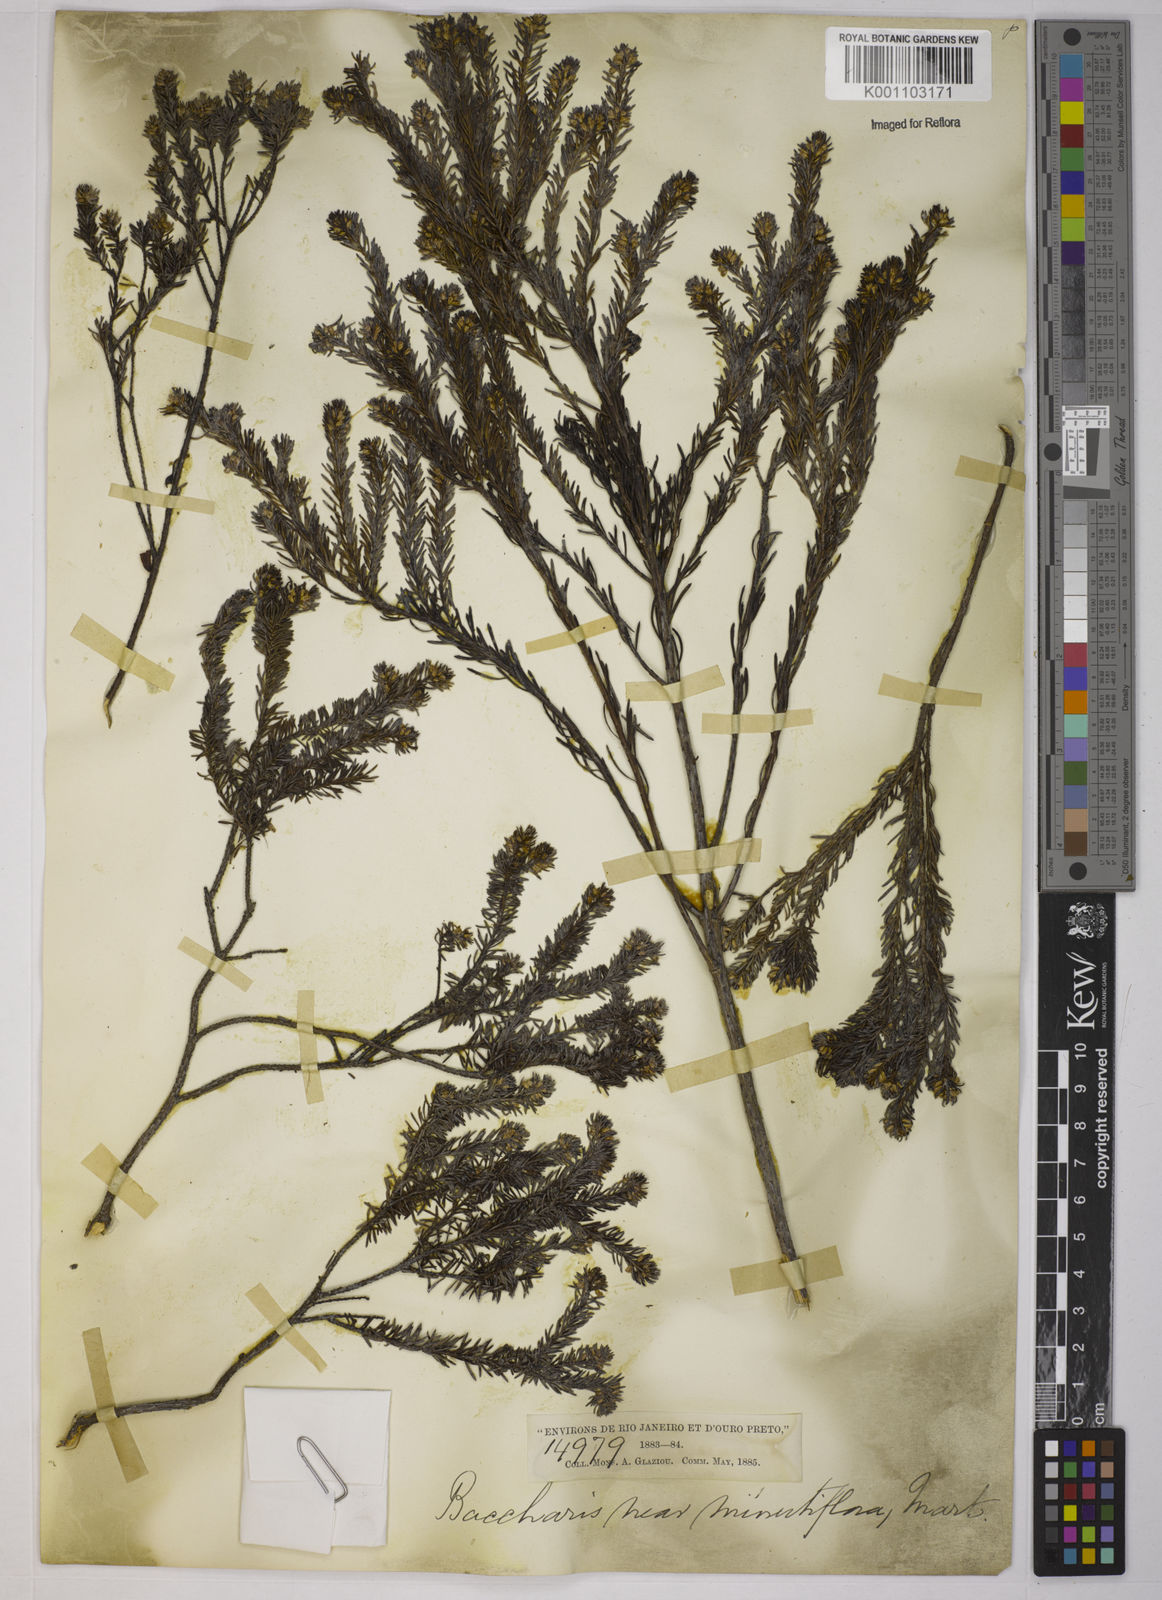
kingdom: Plantae
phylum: Tracheophyta
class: Magnoliopsida
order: Asterales
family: Asteraceae
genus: Baccharis
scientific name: Baccharis multiflora
